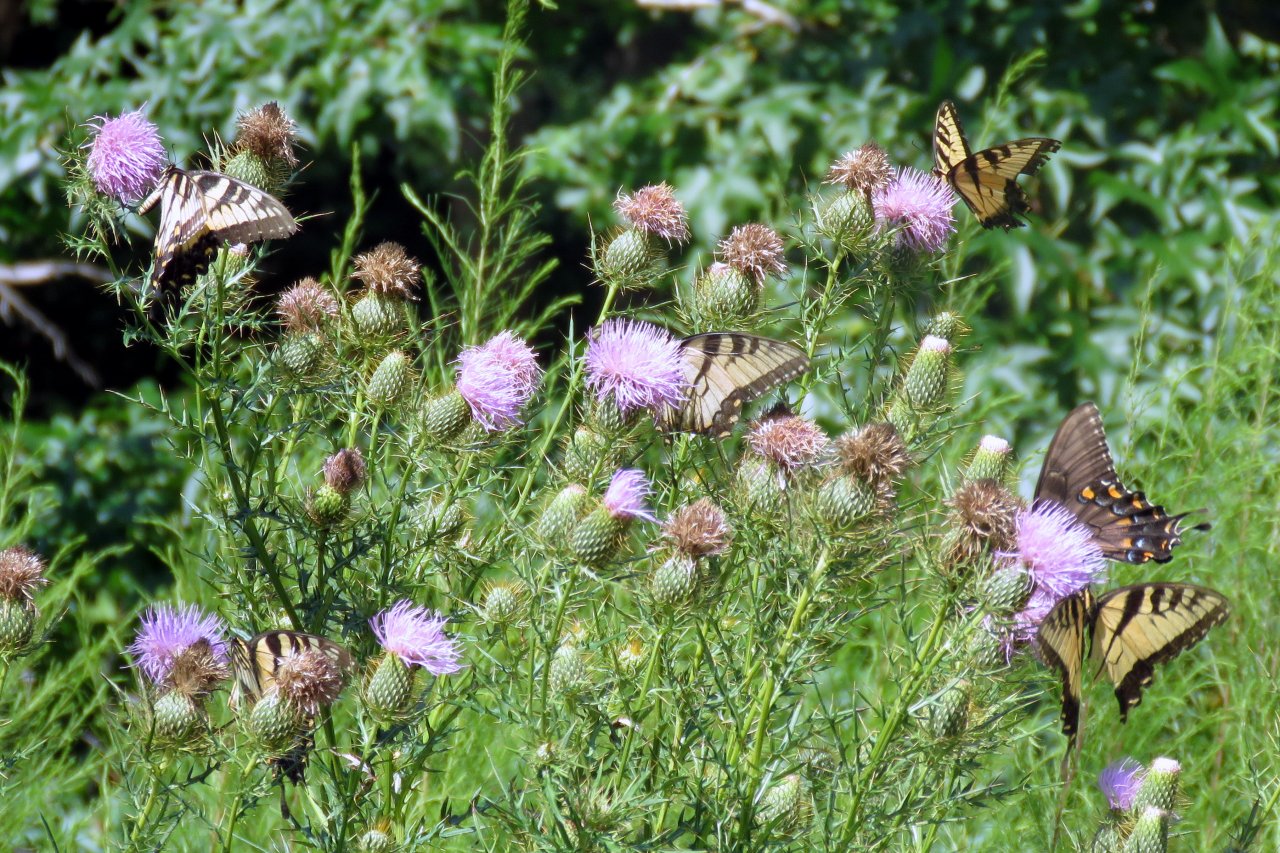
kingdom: Animalia
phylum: Arthropoda
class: Insecta
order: Lepidoptera
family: Papilionidae
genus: Pterourus
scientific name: Pterourus glaucus
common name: Eastern Tiger Swallowtail
